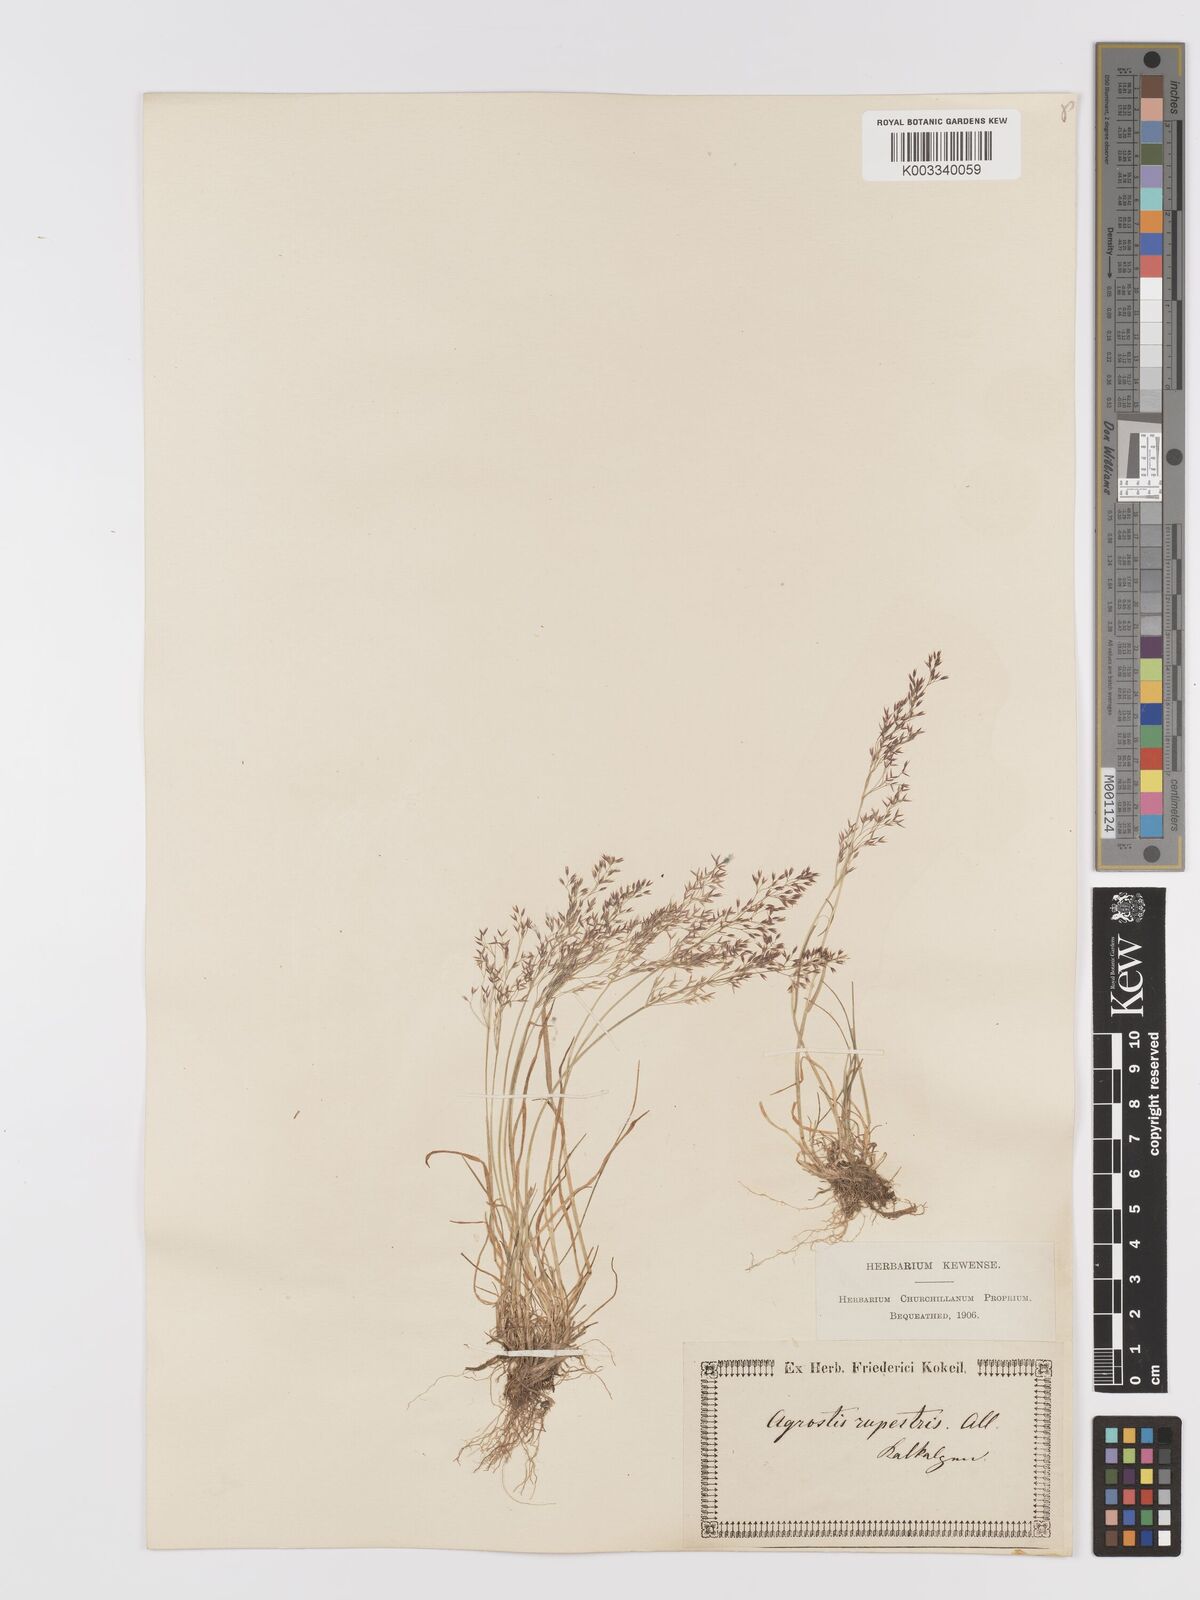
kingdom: Plantae
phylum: Tracheophyta
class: Liliopsida
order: Poales
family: Poaceae
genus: Agrostis
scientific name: Agrostis rupestris
